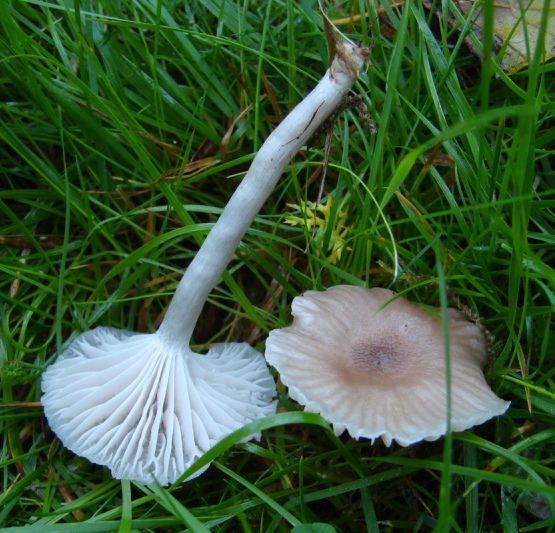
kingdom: Fungi
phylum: Basidiomycota
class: Agaricomycetes
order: Agaricales
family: Hygrophoraceae
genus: Cuphophyllus
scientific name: Cuphophyllus
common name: vokshat
